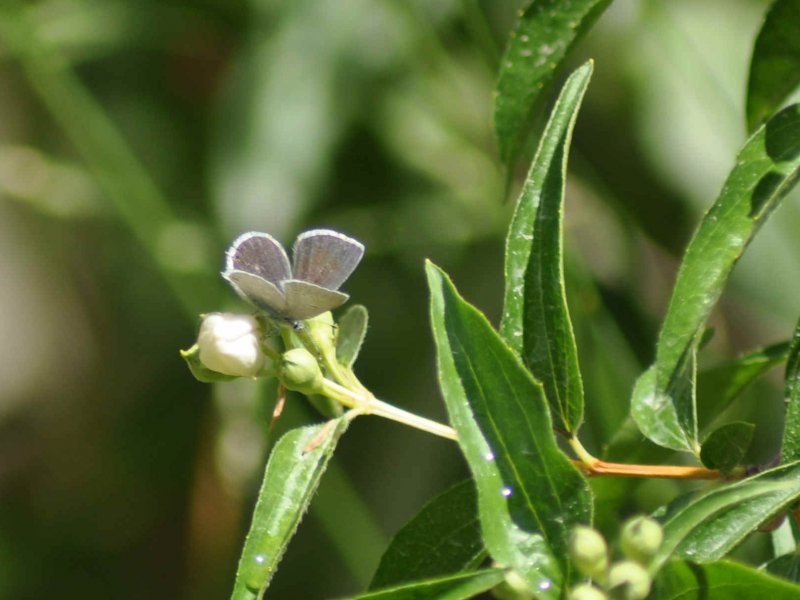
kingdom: Animalia
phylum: Arthropoda
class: Insecta
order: Lepidoptera
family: Lycaenidae
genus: Elkalyce
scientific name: Elkalyce amyntula
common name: Western Tailed-Blue
